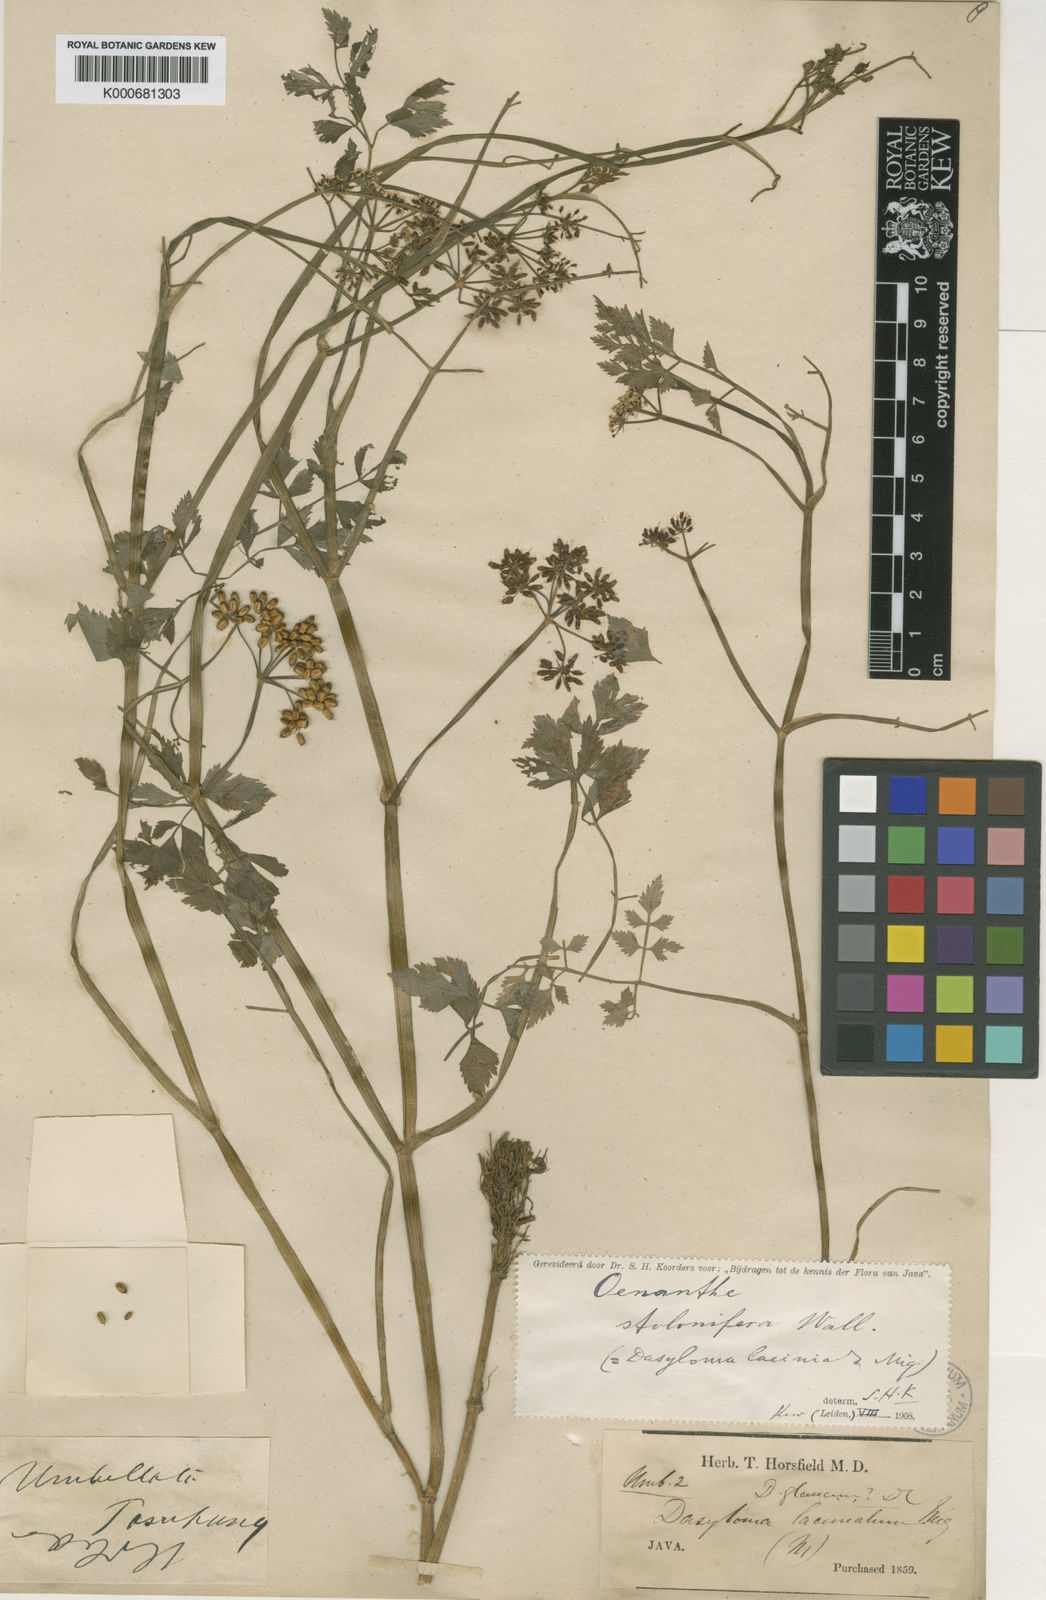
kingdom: Plantae
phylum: Tracheophyta
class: Magnoliopsida
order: Apiales
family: Apiaceae
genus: Oenanthe
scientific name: Oenanthe javanica
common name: Java water-dropwort
